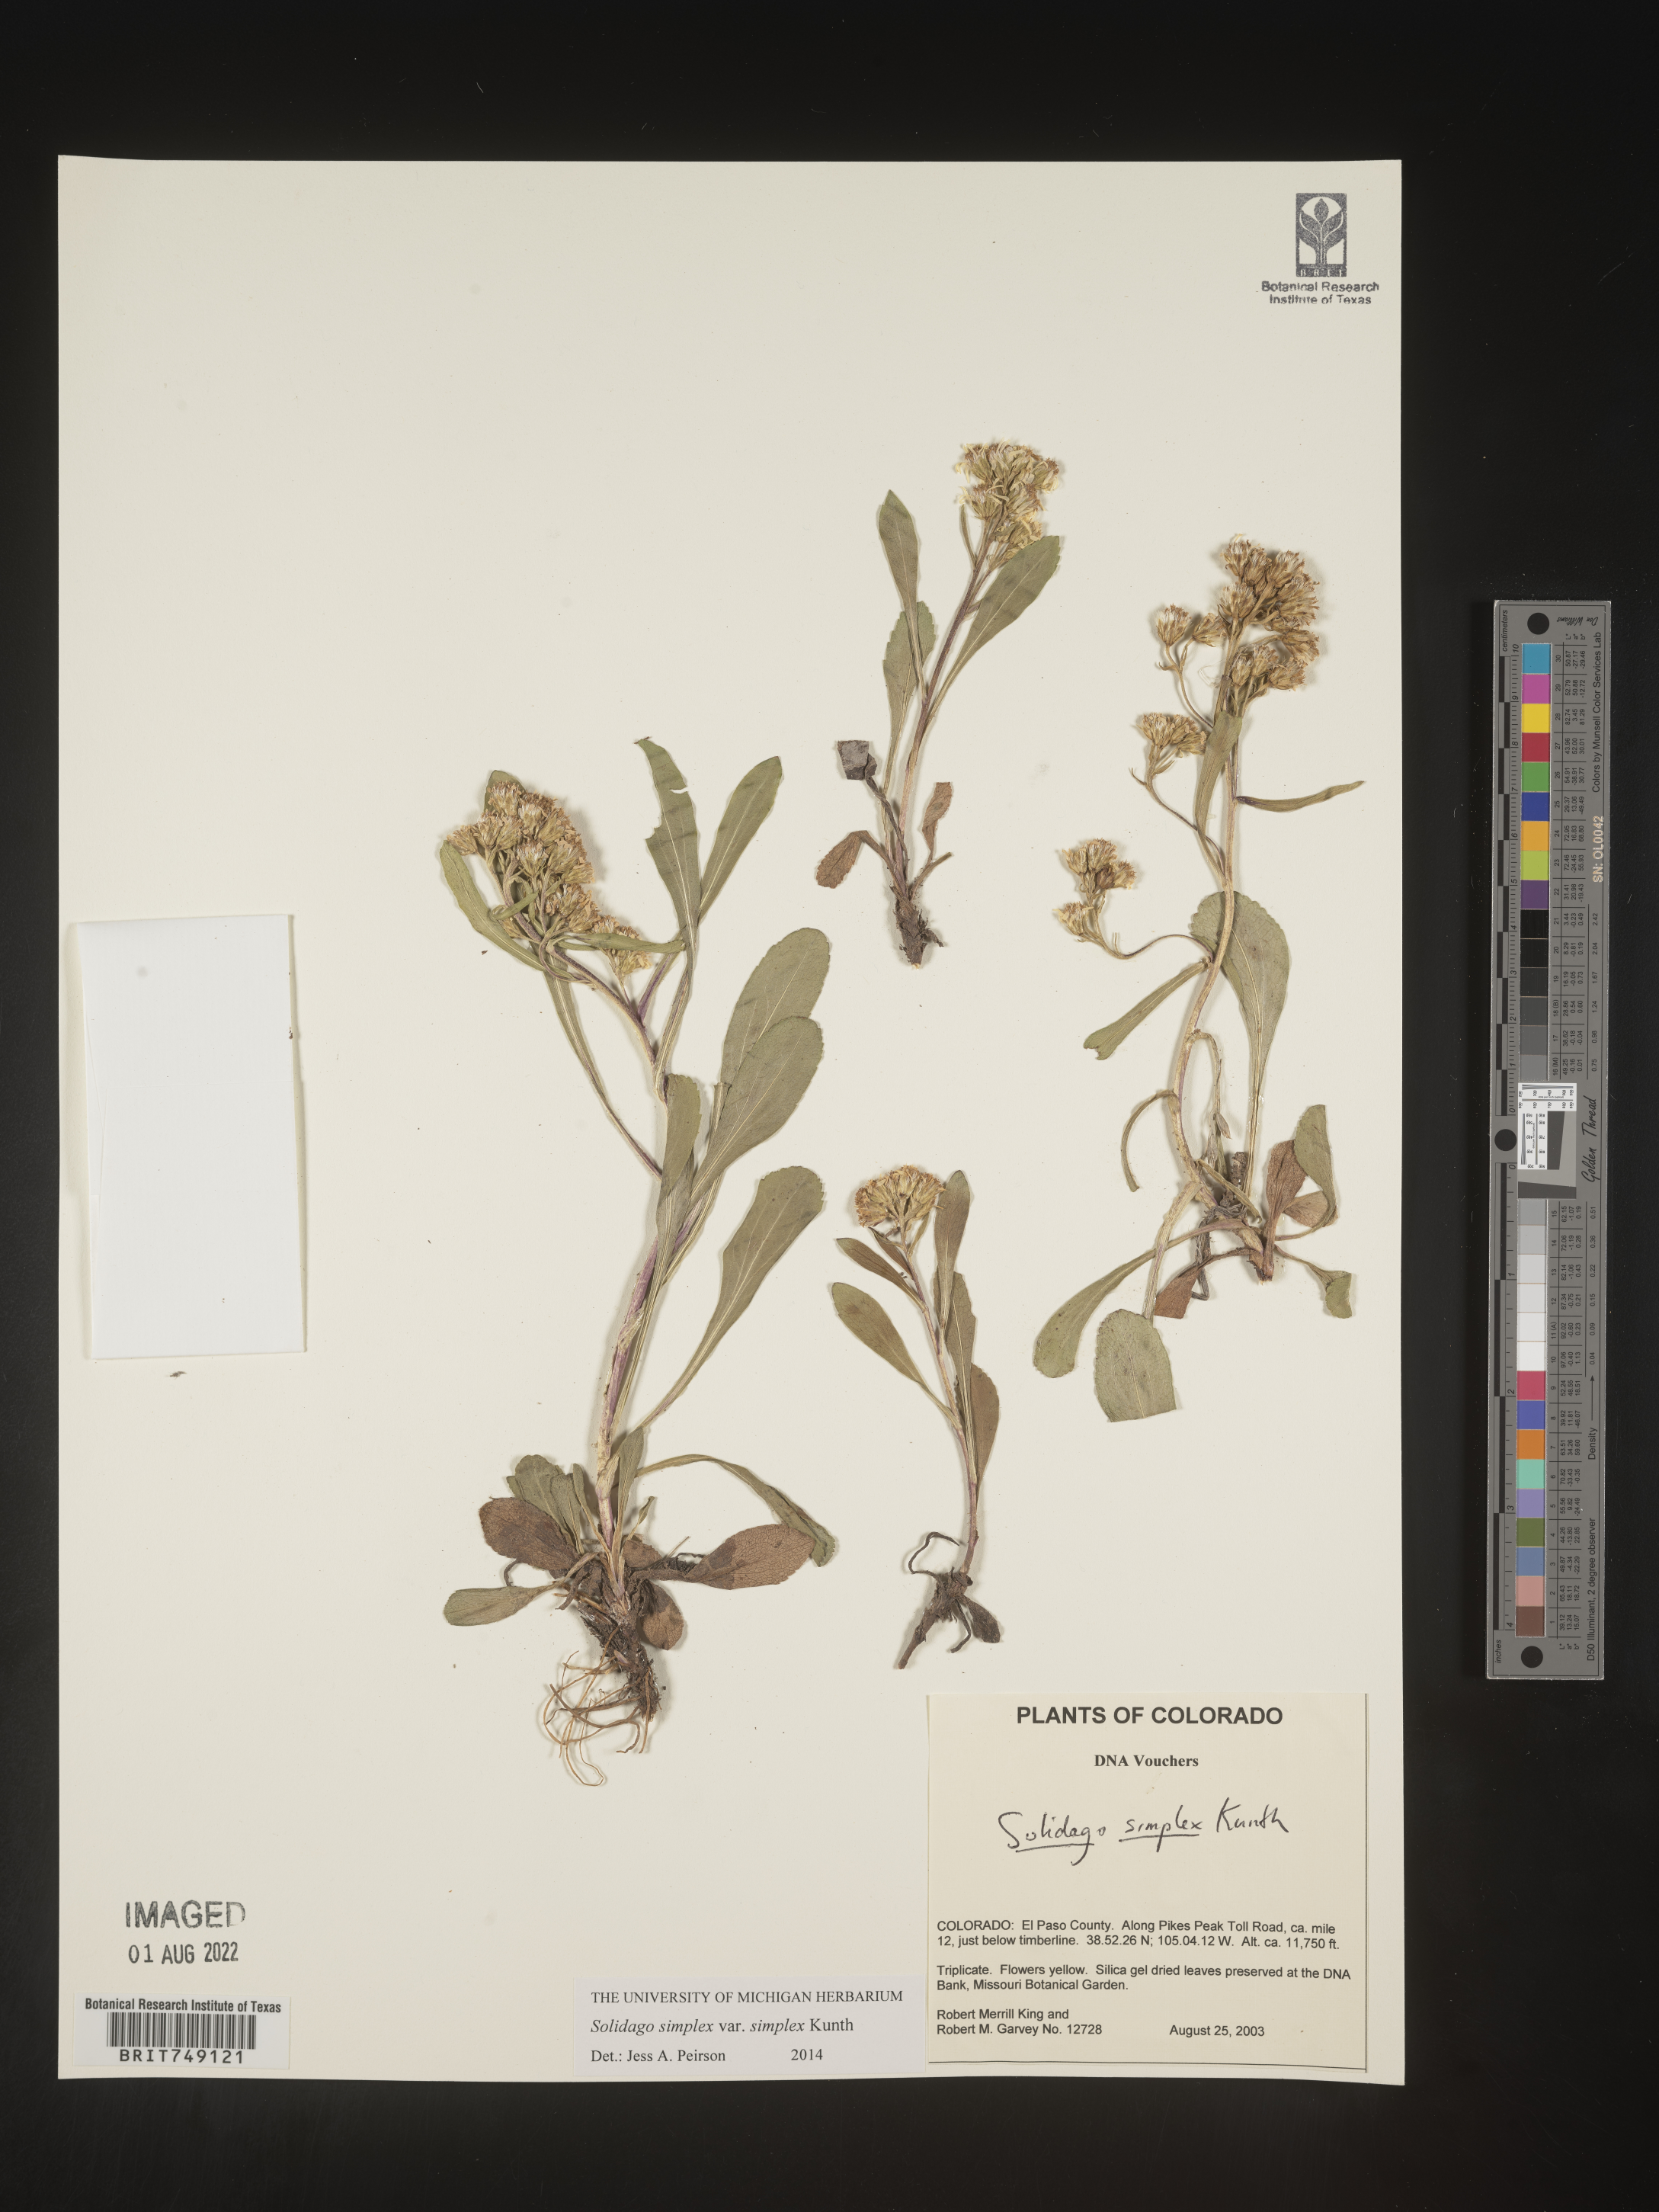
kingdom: Plantae
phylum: Tracheophyta
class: Magnoliopsida
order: Asterales
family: Asteraceae
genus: Solidago
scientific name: Solidago simplex
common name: Sticky goldenrod
